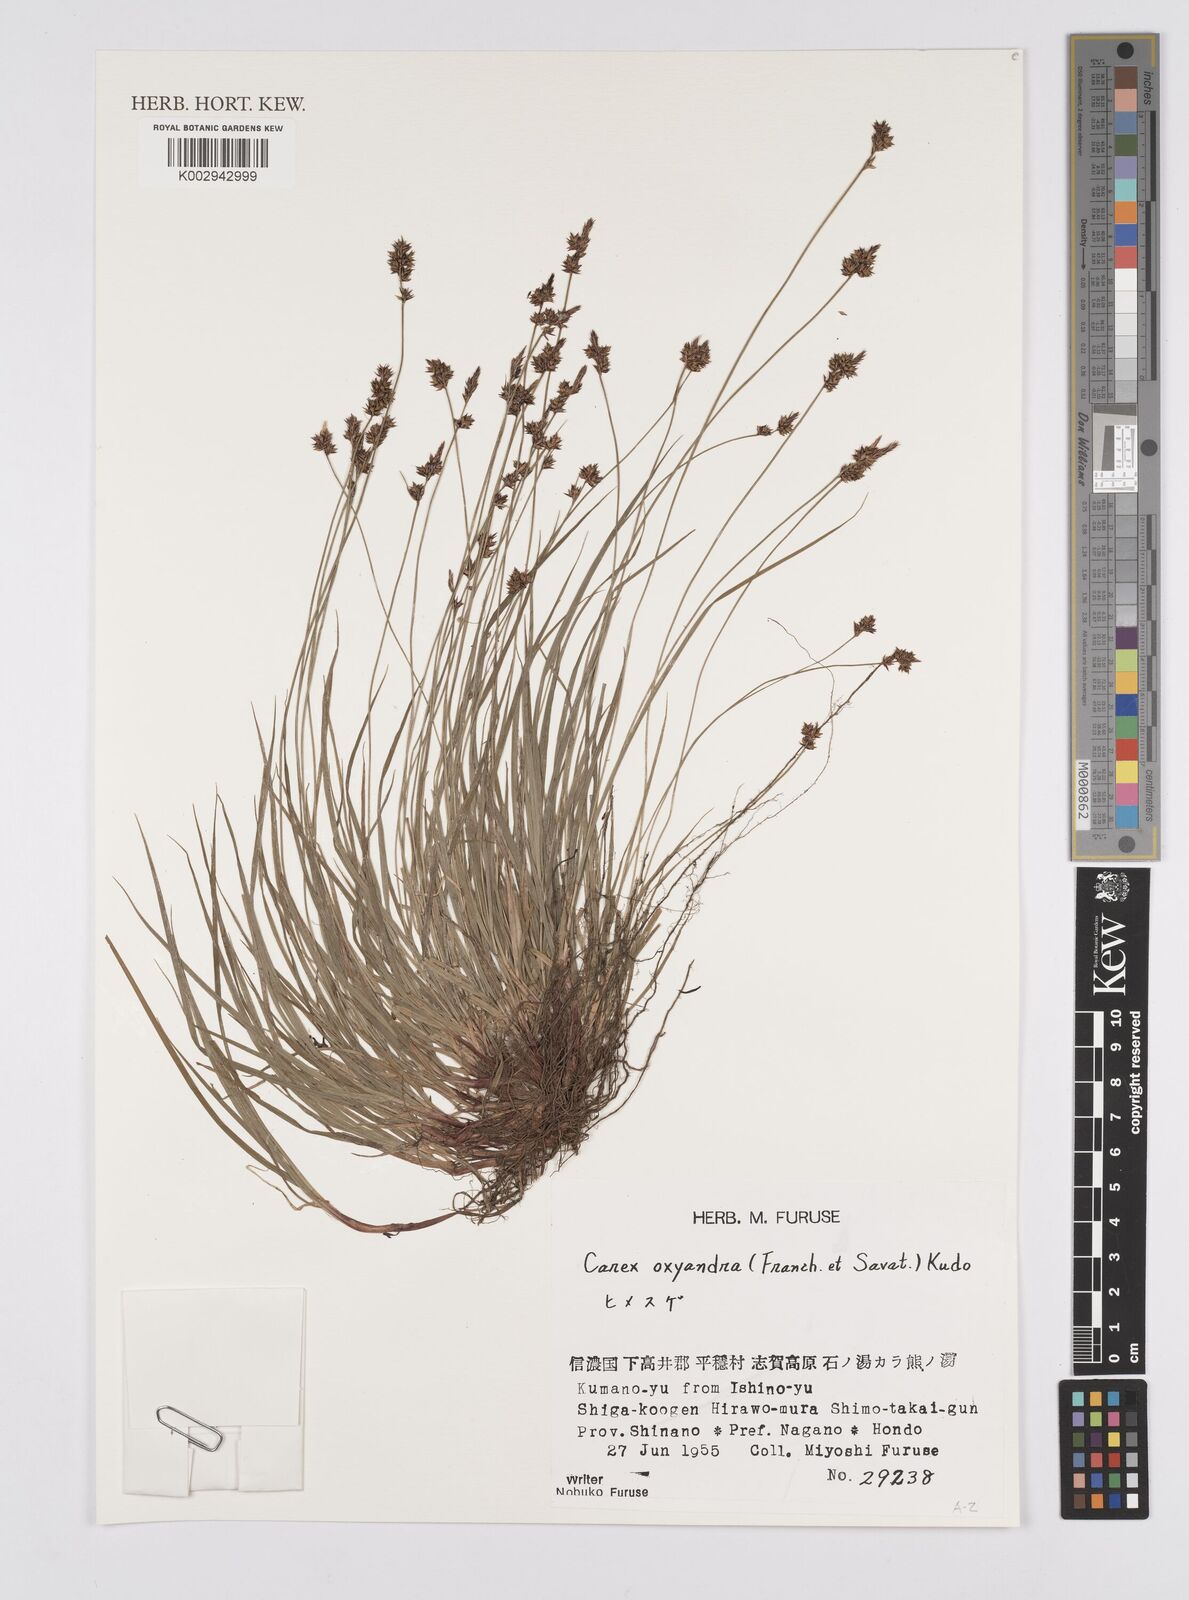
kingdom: Plantae
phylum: Tracheophyta
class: Liliopsida
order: Poales
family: Cyperaceae
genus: Carex
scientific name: Carex oxyandra
